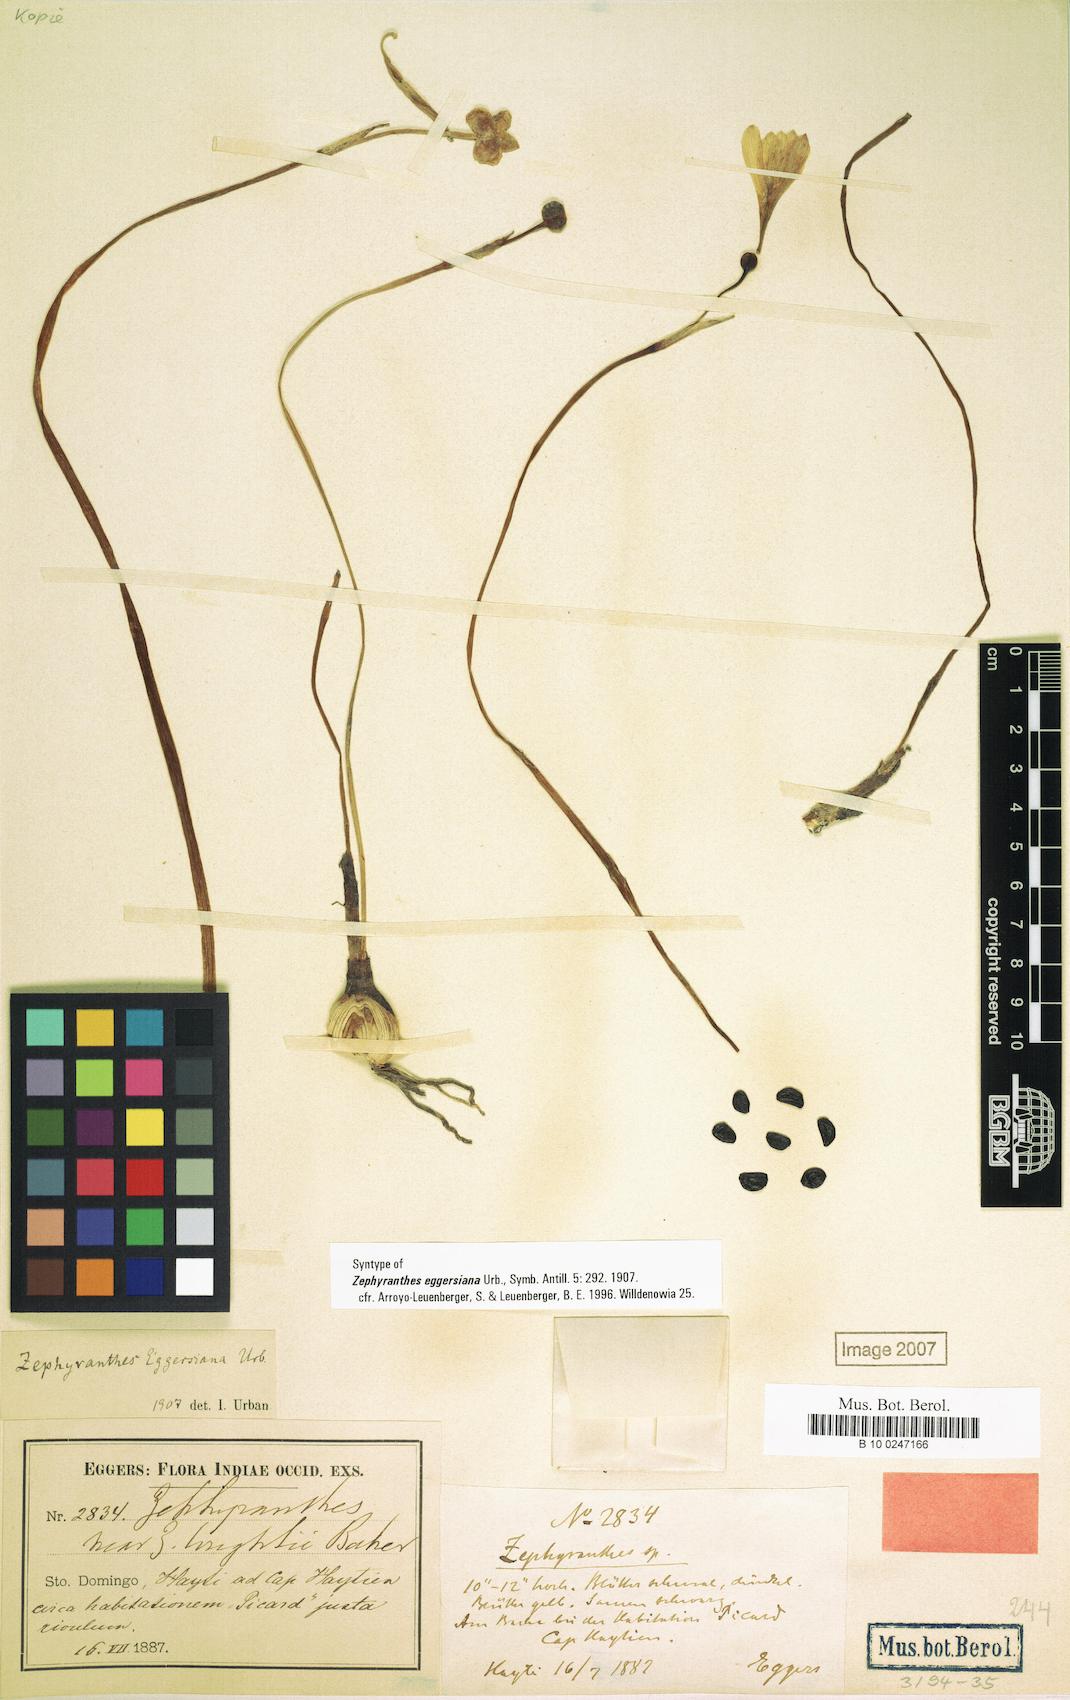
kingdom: Plantae
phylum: Tracheophyta
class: Liliopsida
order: Asparagales
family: Amaryllidaceae
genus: Zephyranthes
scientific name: Zephyranthes citrina
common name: Citron zephyrlily
